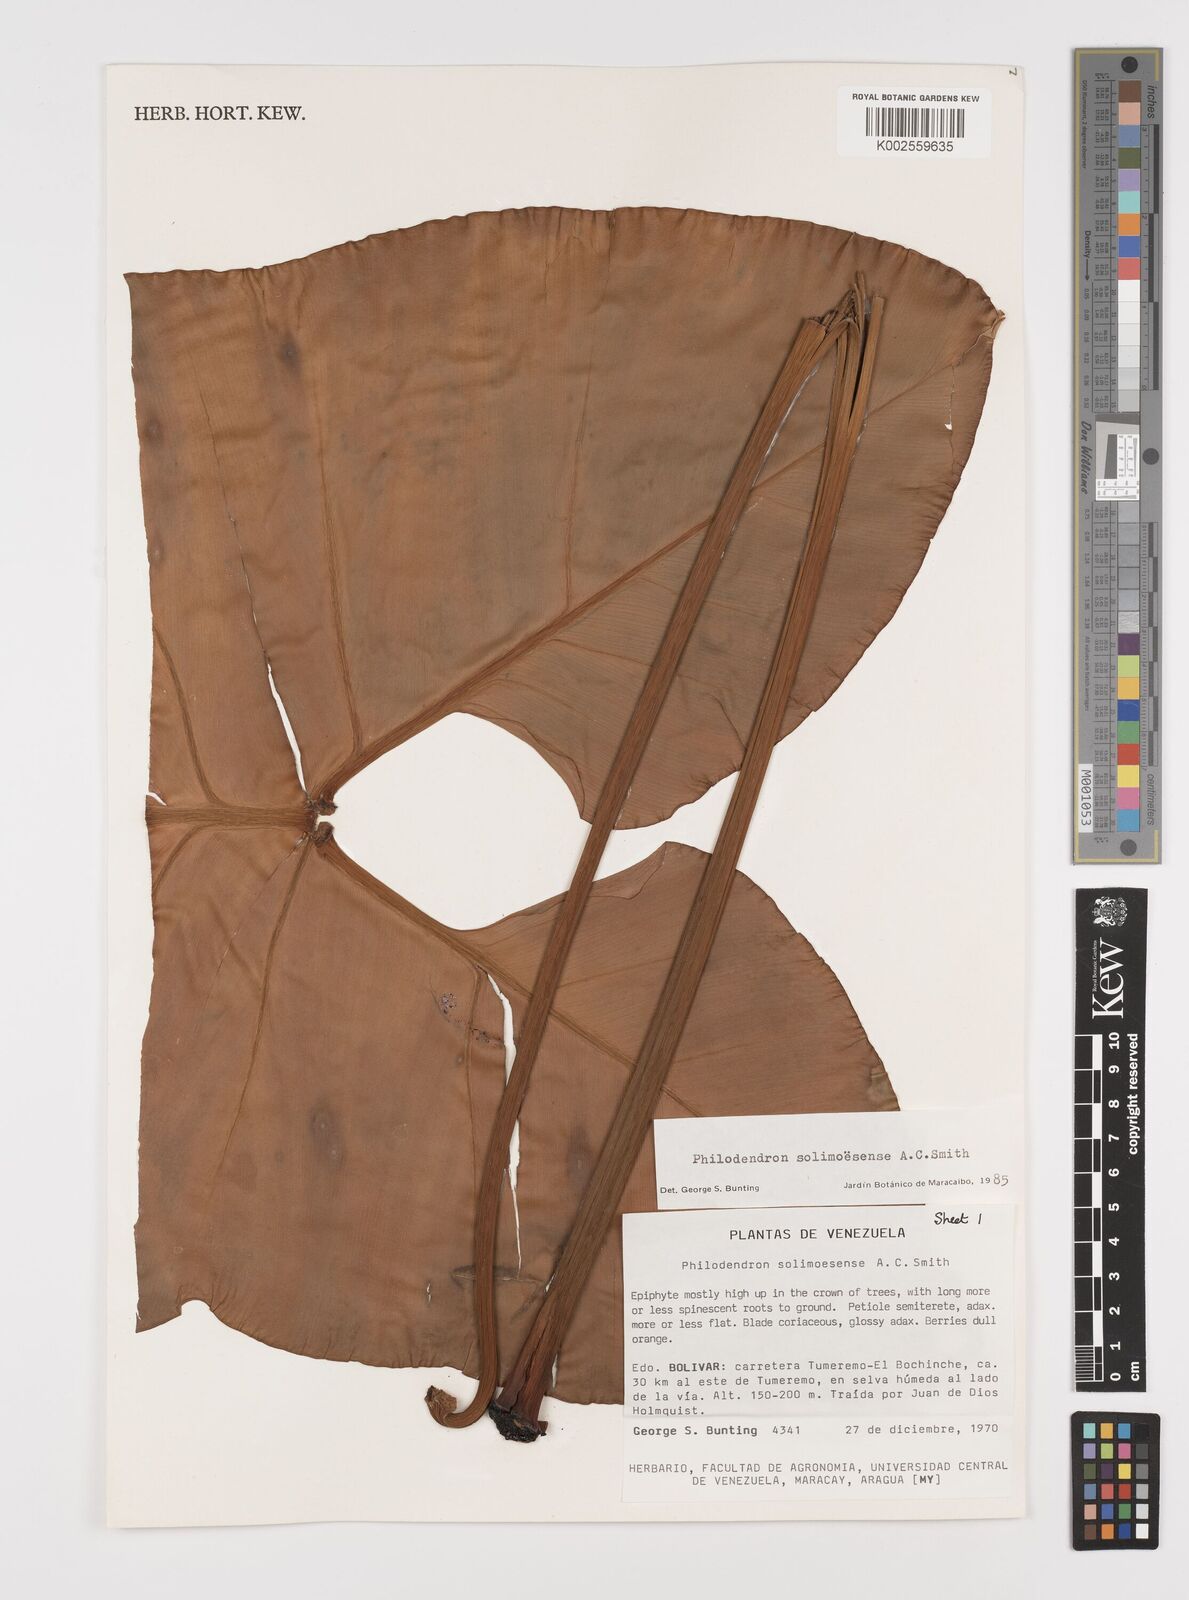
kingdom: Plantae
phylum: Tracheophyta
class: Liliopsida
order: Alismatales
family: Araceae
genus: Thaumatophyllum
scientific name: Thaumatophyllum solimoesense
